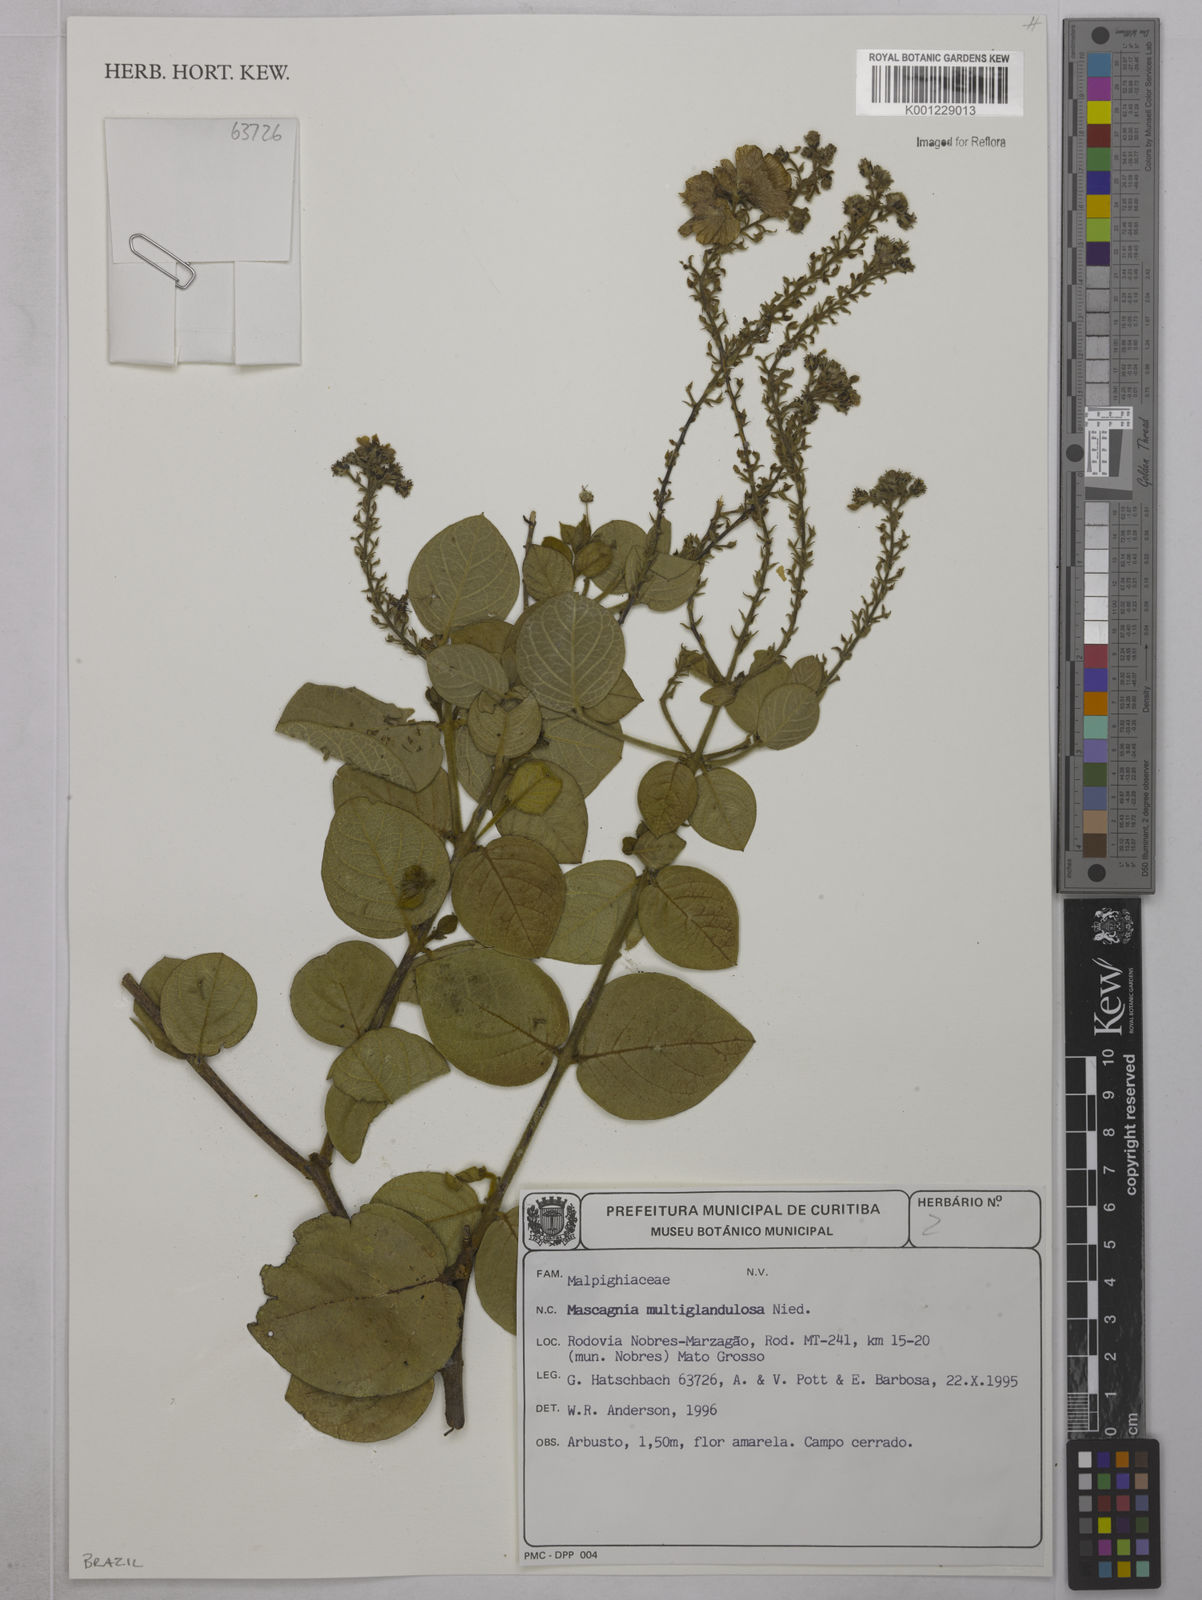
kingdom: Plantae
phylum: Tracheophyta
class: Magnoliopsida
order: Malpighiales
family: Malpighiaceae
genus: Christianella
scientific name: Christianella multiglandulosa
